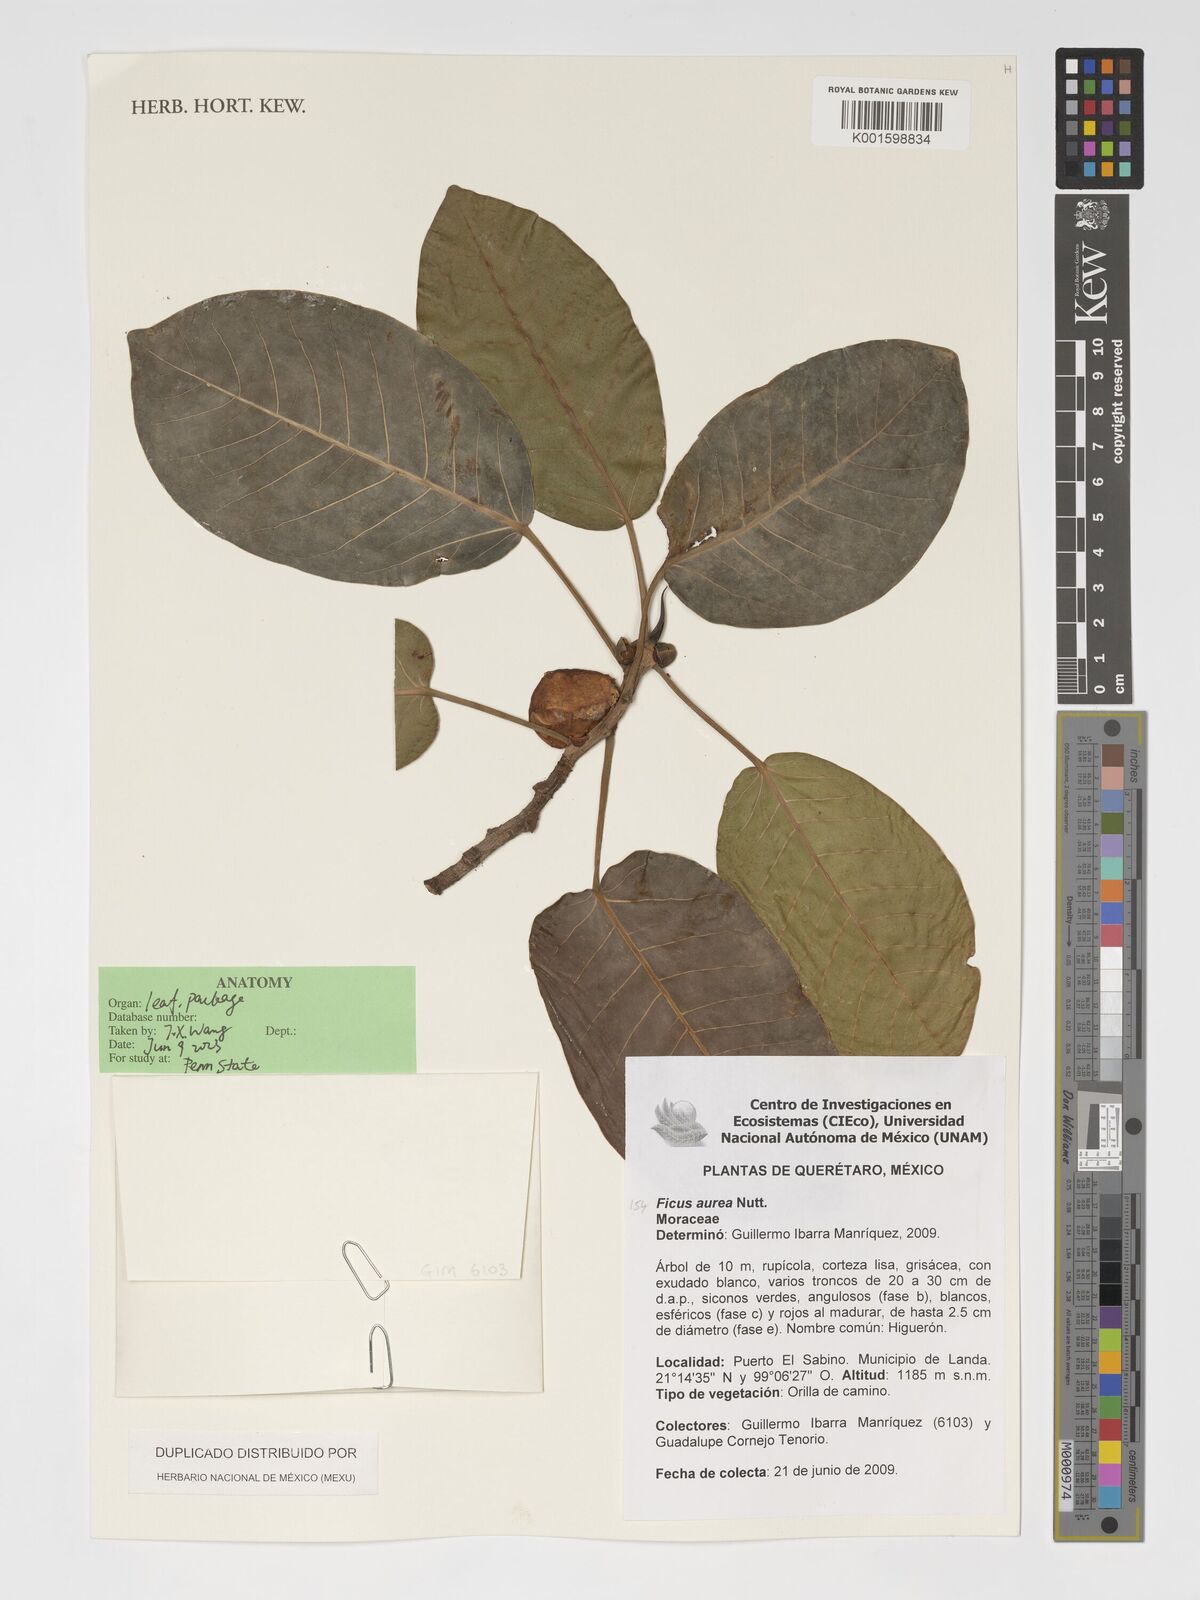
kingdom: Plantae
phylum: Tracheophyta
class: Magnoliopsida
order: Rosales
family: Moraceae
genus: Ficus
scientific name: Ficus aurea
